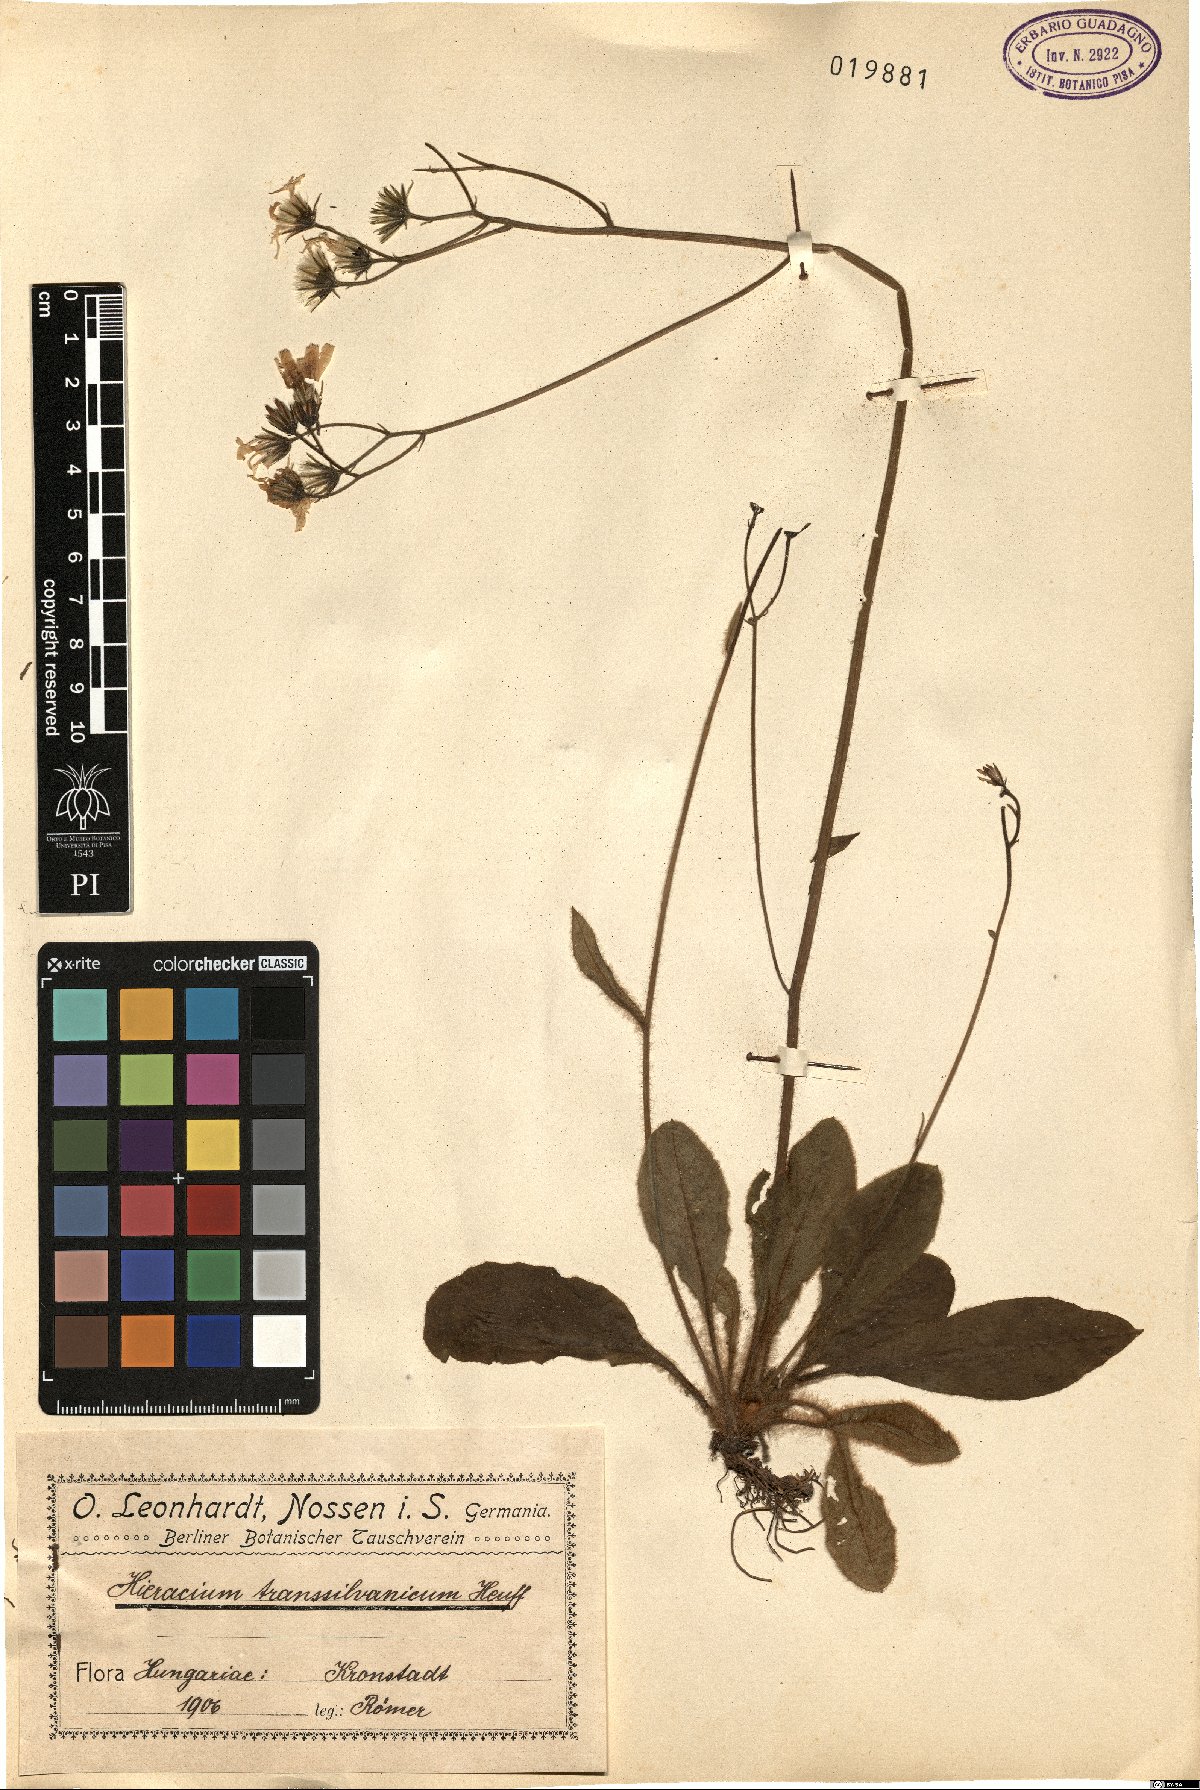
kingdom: Plantae
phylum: Tracheophyta
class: Magnoliopsida
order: Asterales
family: Asteraceae
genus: Hieracium
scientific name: Hieracium transylvanicum
